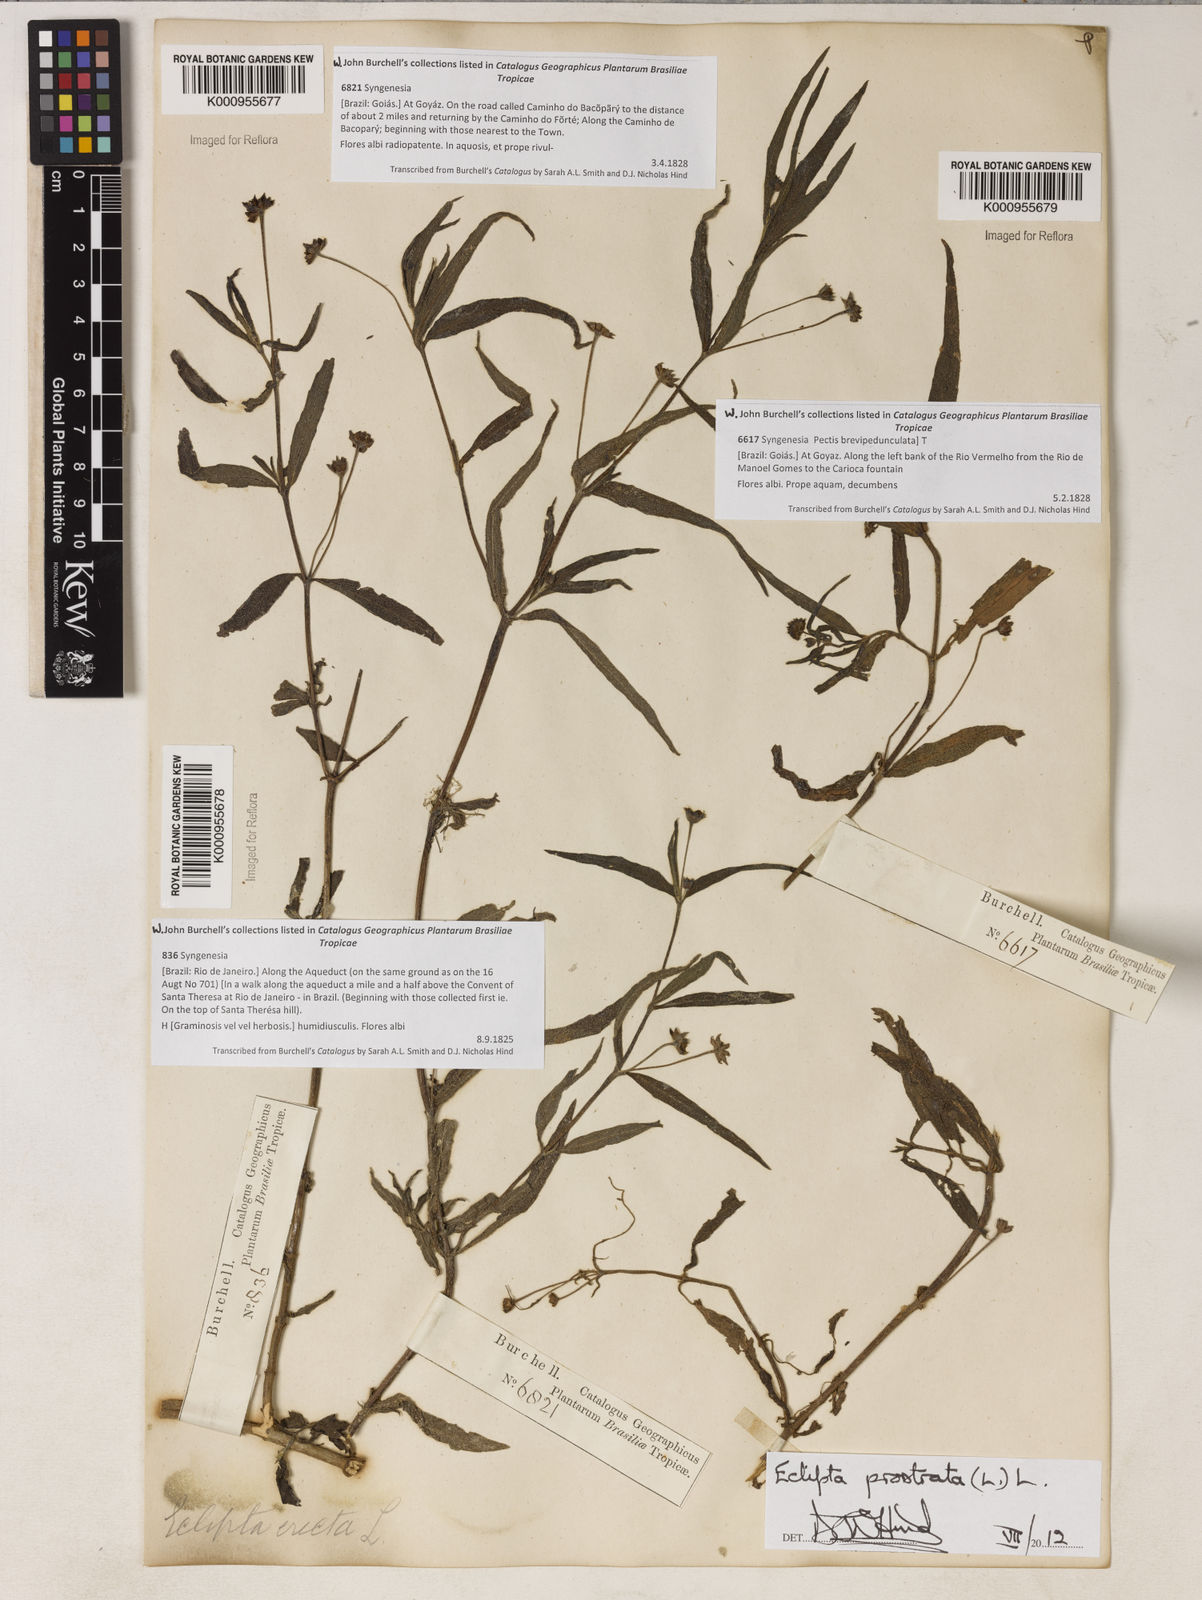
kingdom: Plantae
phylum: Tracheophyta
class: Magnoliopsida
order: Asterales
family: Asteraceae
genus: Eclipta
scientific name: Eclipta prostrata
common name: False daisy
